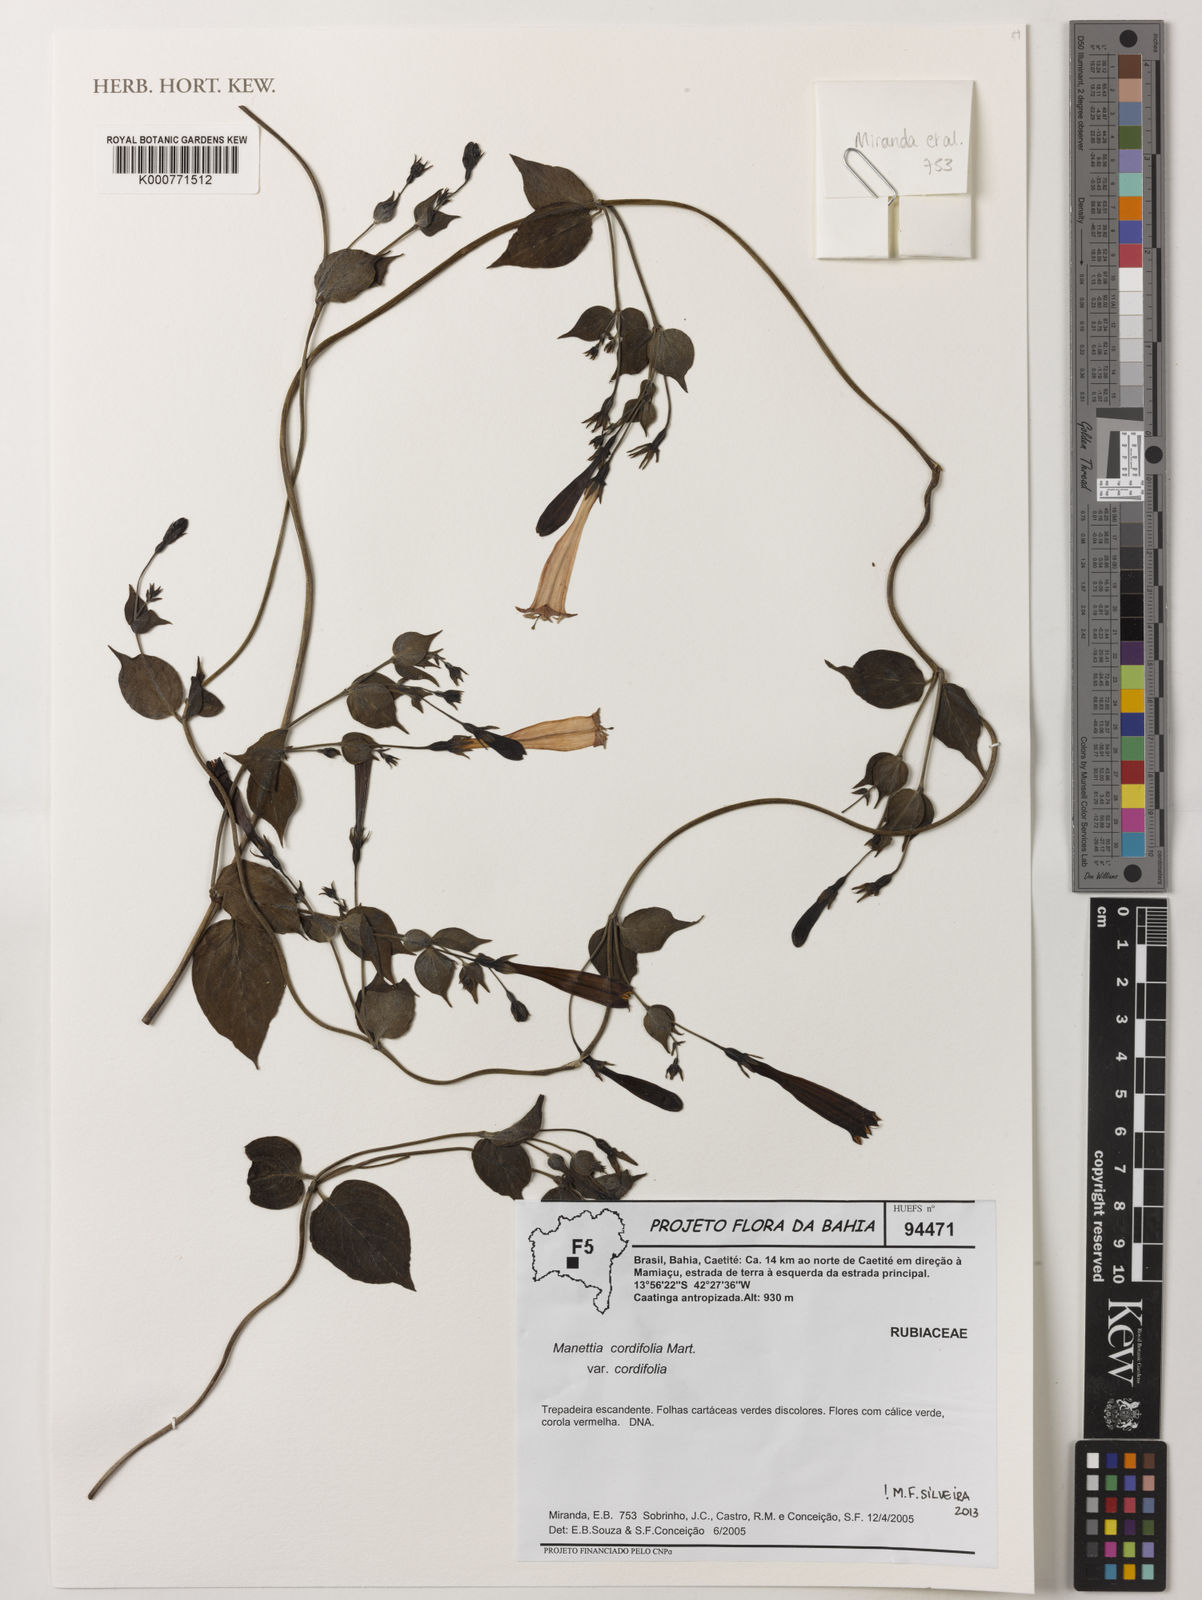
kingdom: Plantae
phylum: Tracheophyta
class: Magnoliopsida
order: Gentianales
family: Rubiaceae
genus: Manettia
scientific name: Manettia cordifolia
